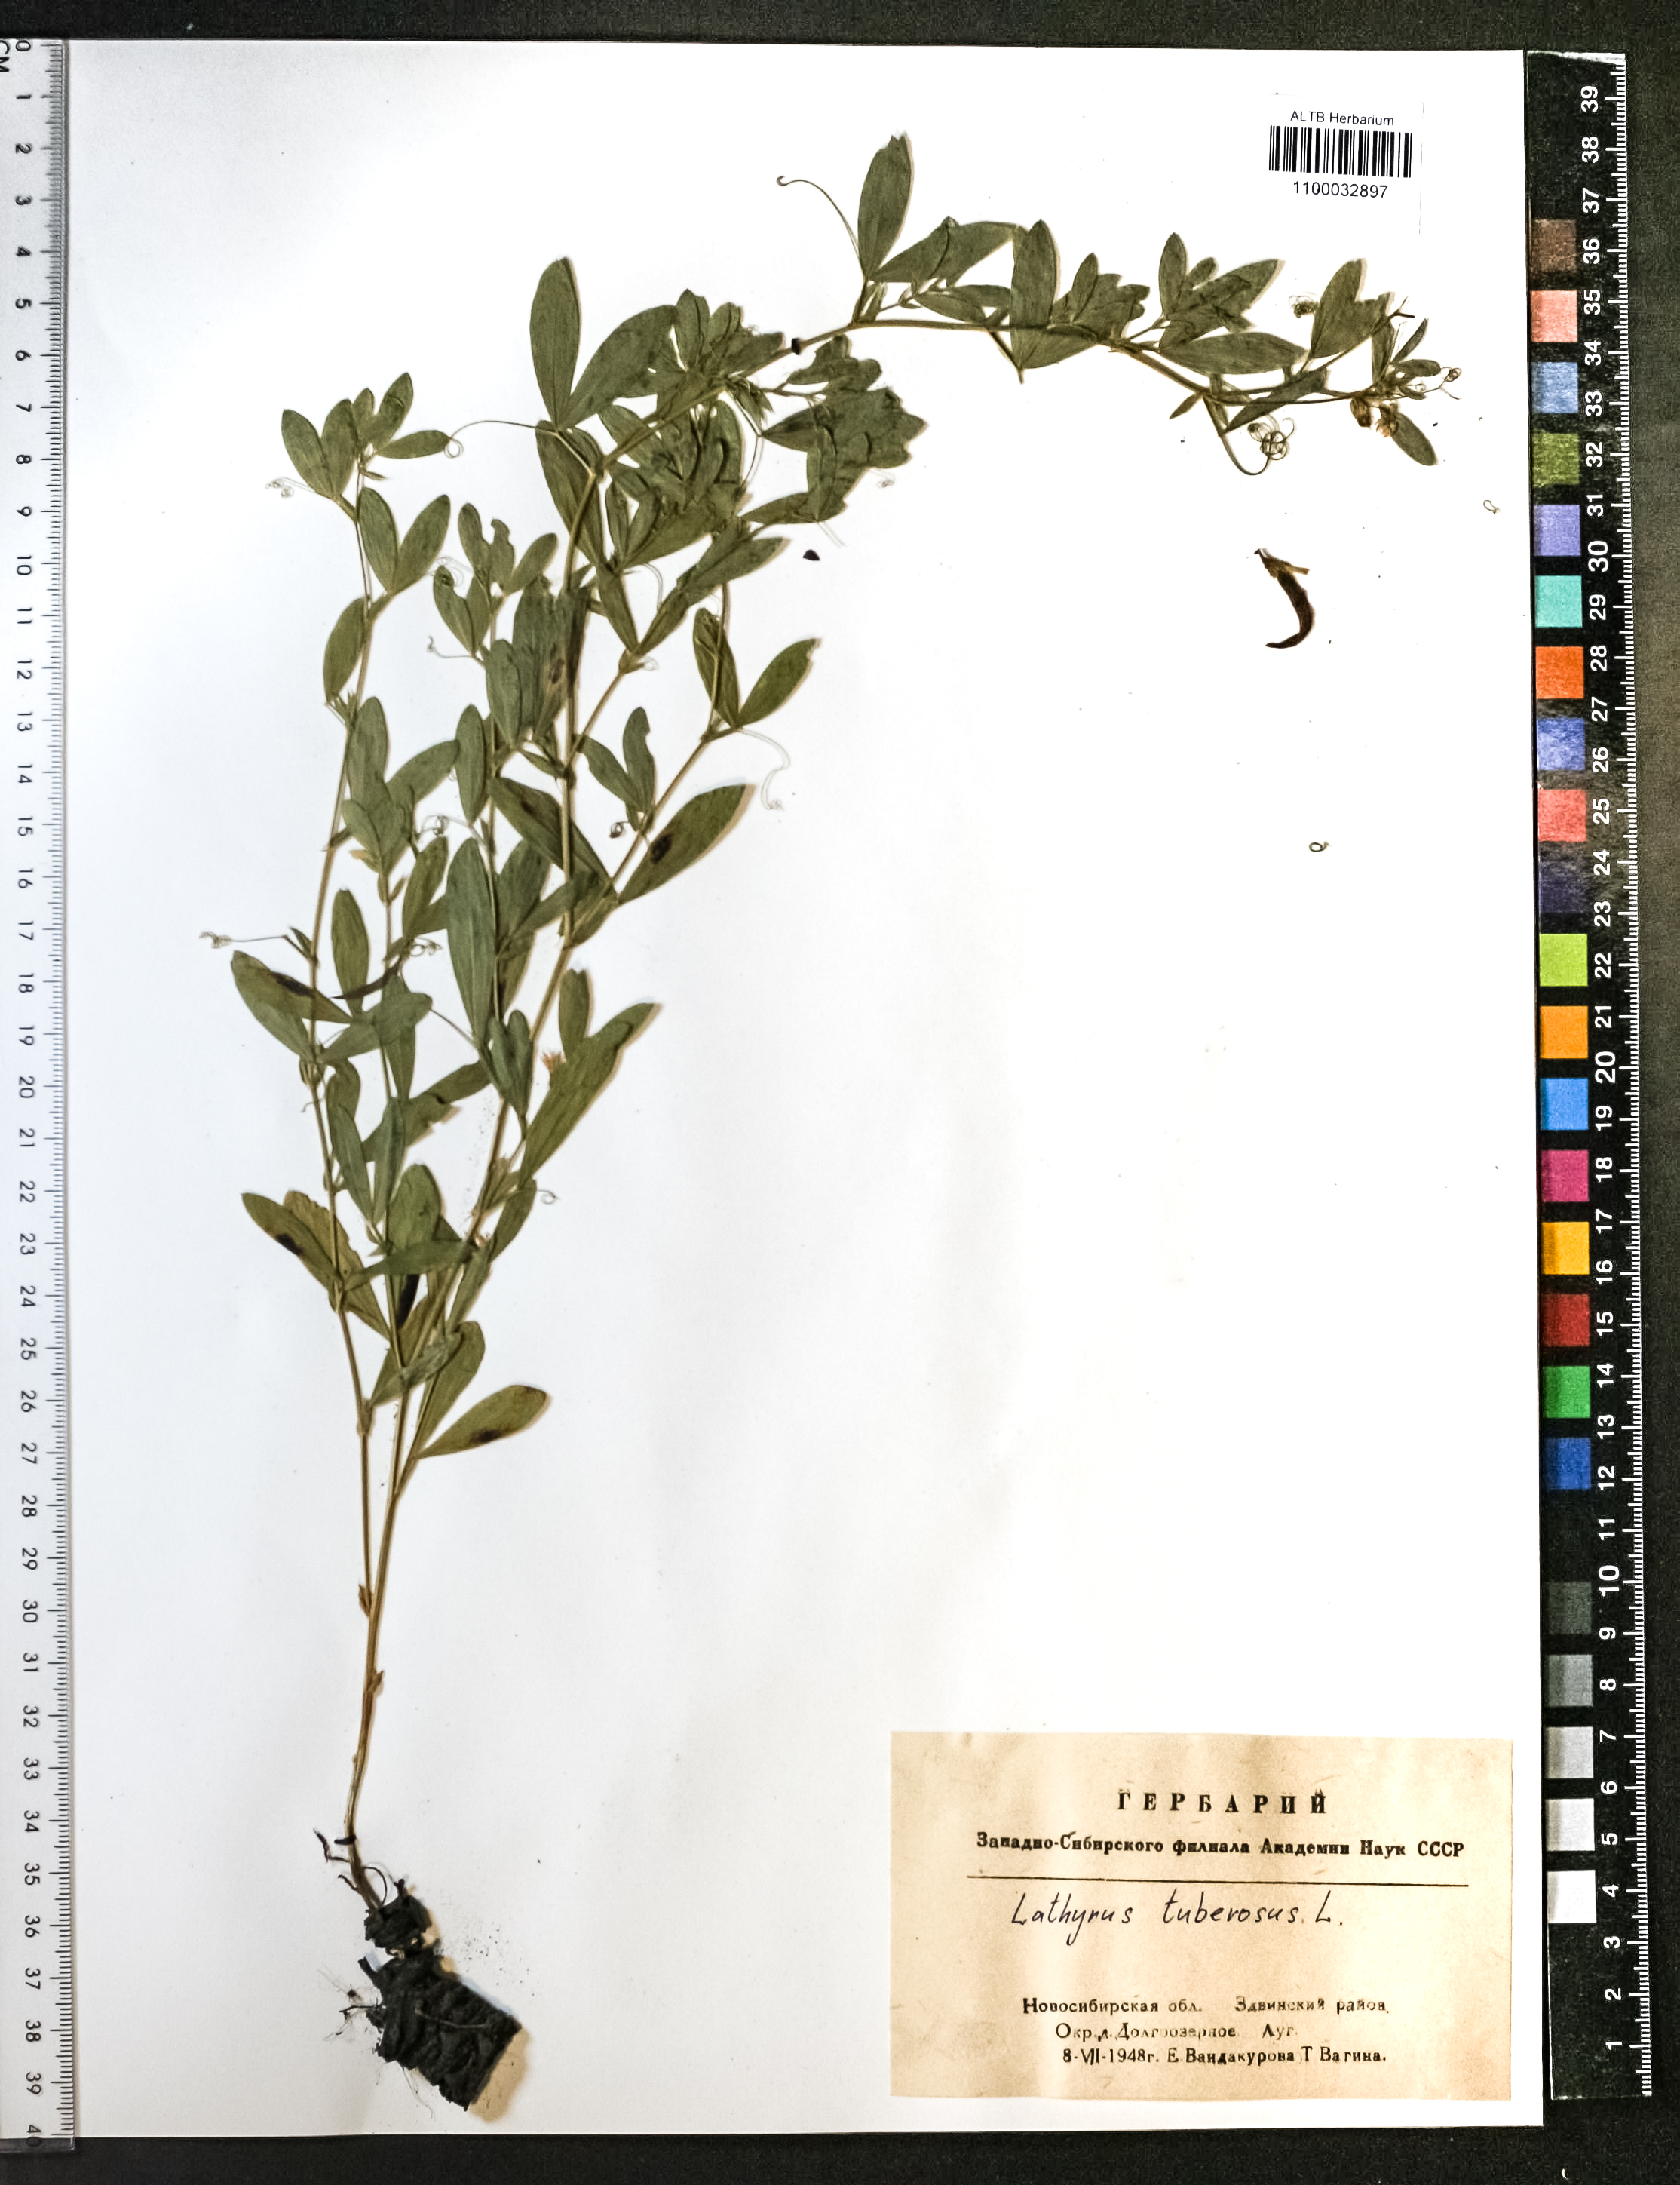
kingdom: Plantae
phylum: Tracheophyta
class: Magnoliopsida
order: Fabales
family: Fabaceae
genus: Lathyrus
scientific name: Lathyrus tuberosus
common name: Tuberous pea
